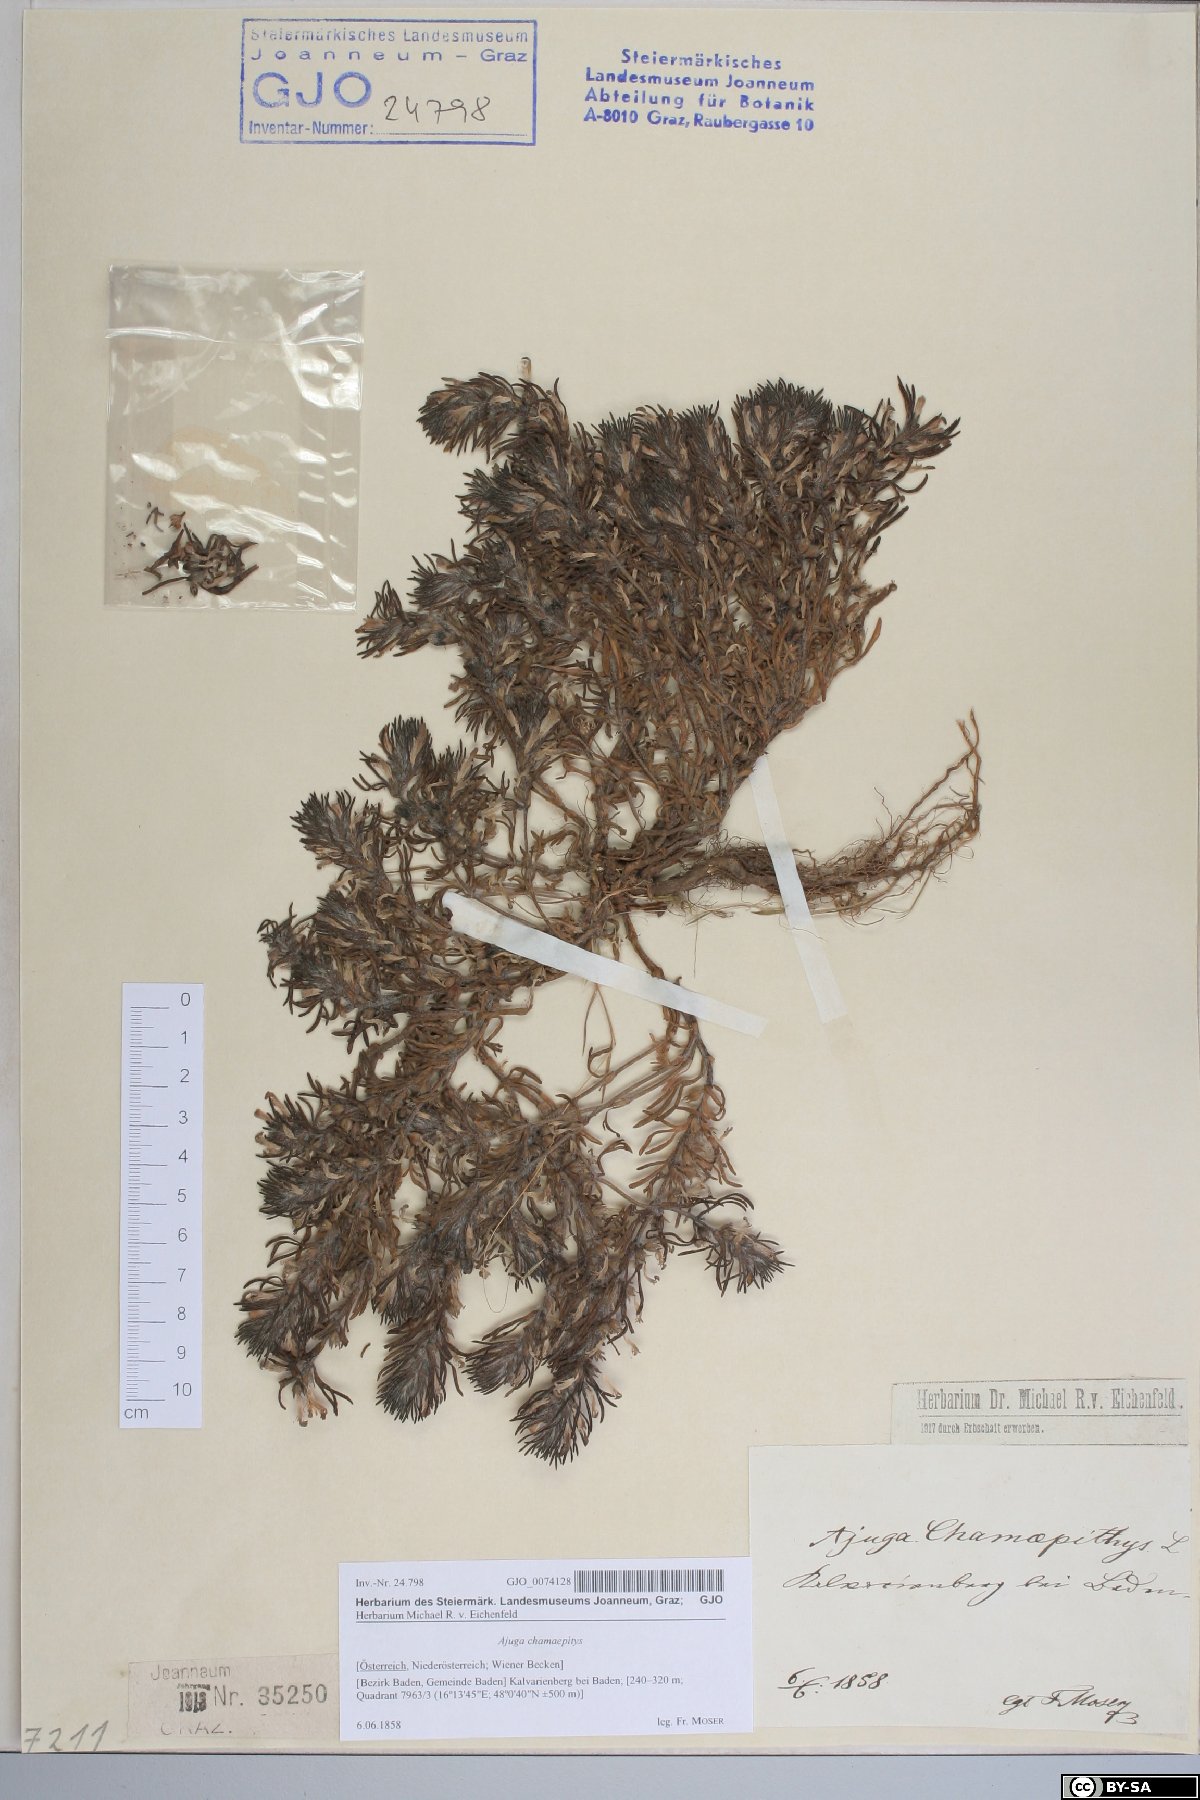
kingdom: Plantae
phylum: Tracheophyta
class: Magnoliopsida
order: Lamiales
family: Lamiaceae
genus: Ajuga
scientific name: Ajuga chamaepitys
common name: Ground-pine
